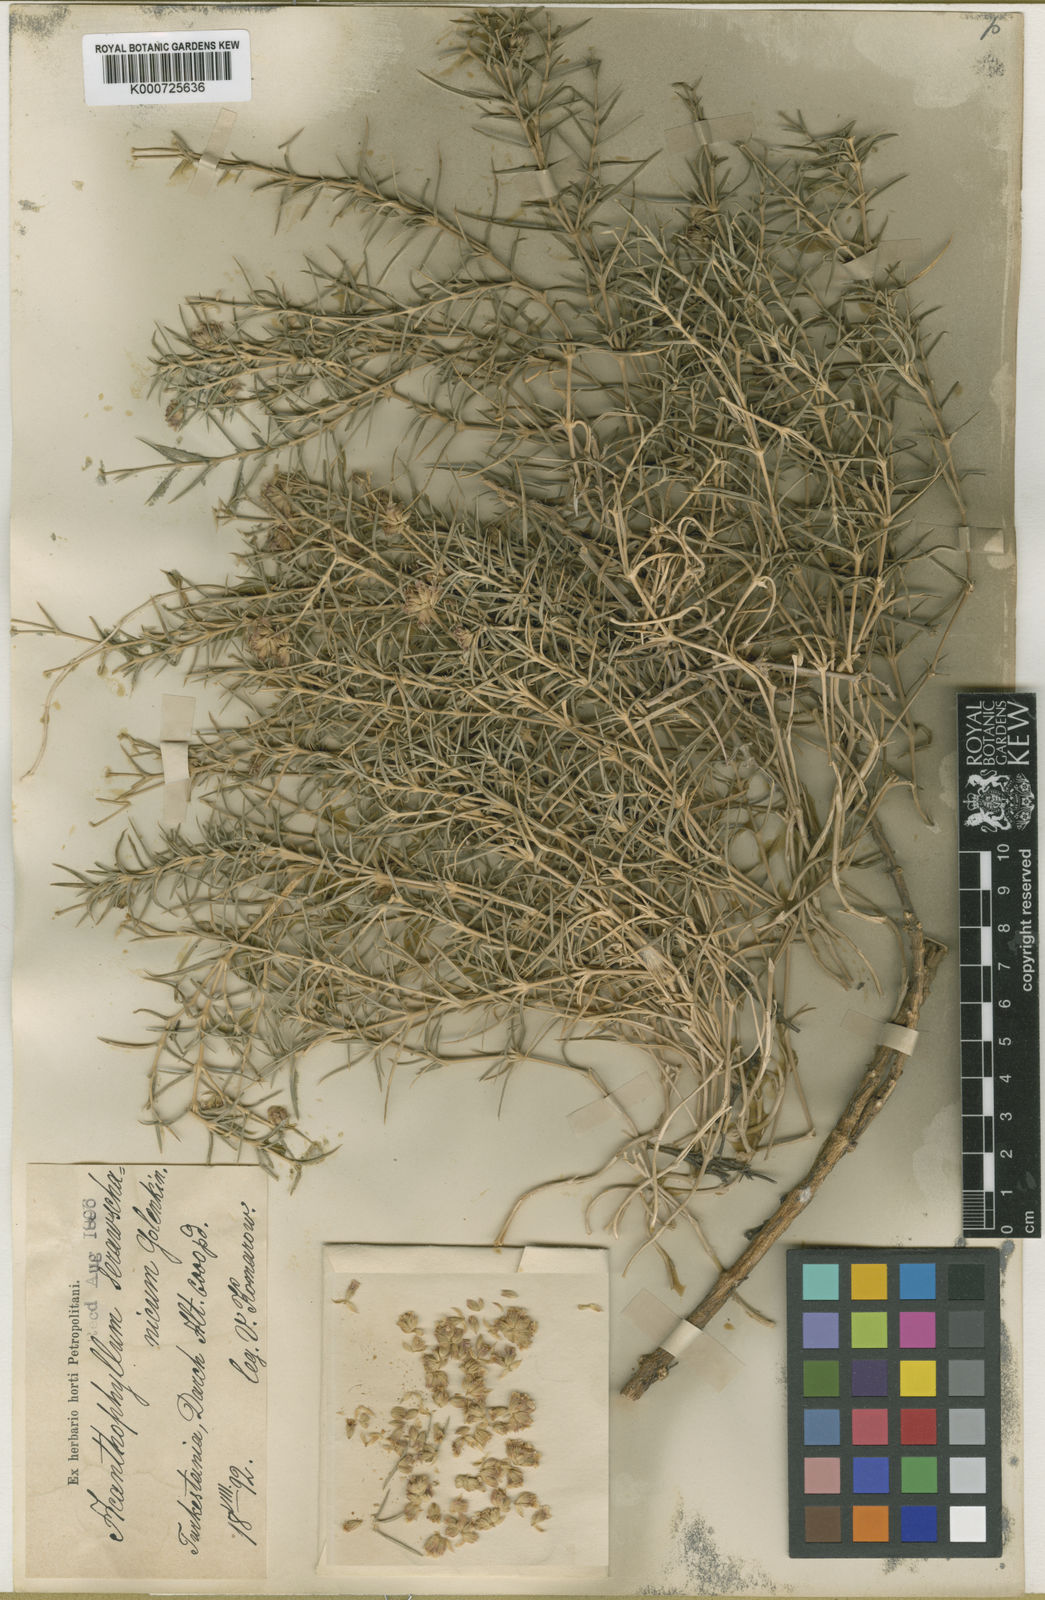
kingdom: Plantae
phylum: Tracheophyta
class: Magnoliopsida
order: Caryophyllales
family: Caryophyllaceae
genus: Acanthophyllum
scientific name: Acanthophyllum
